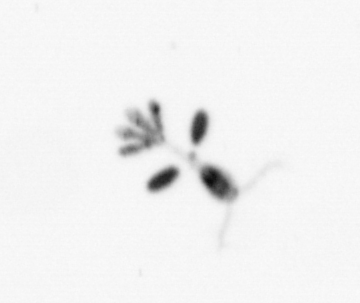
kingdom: Animalia
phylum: Arthropoda
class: Copepoda
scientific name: Copepoda
